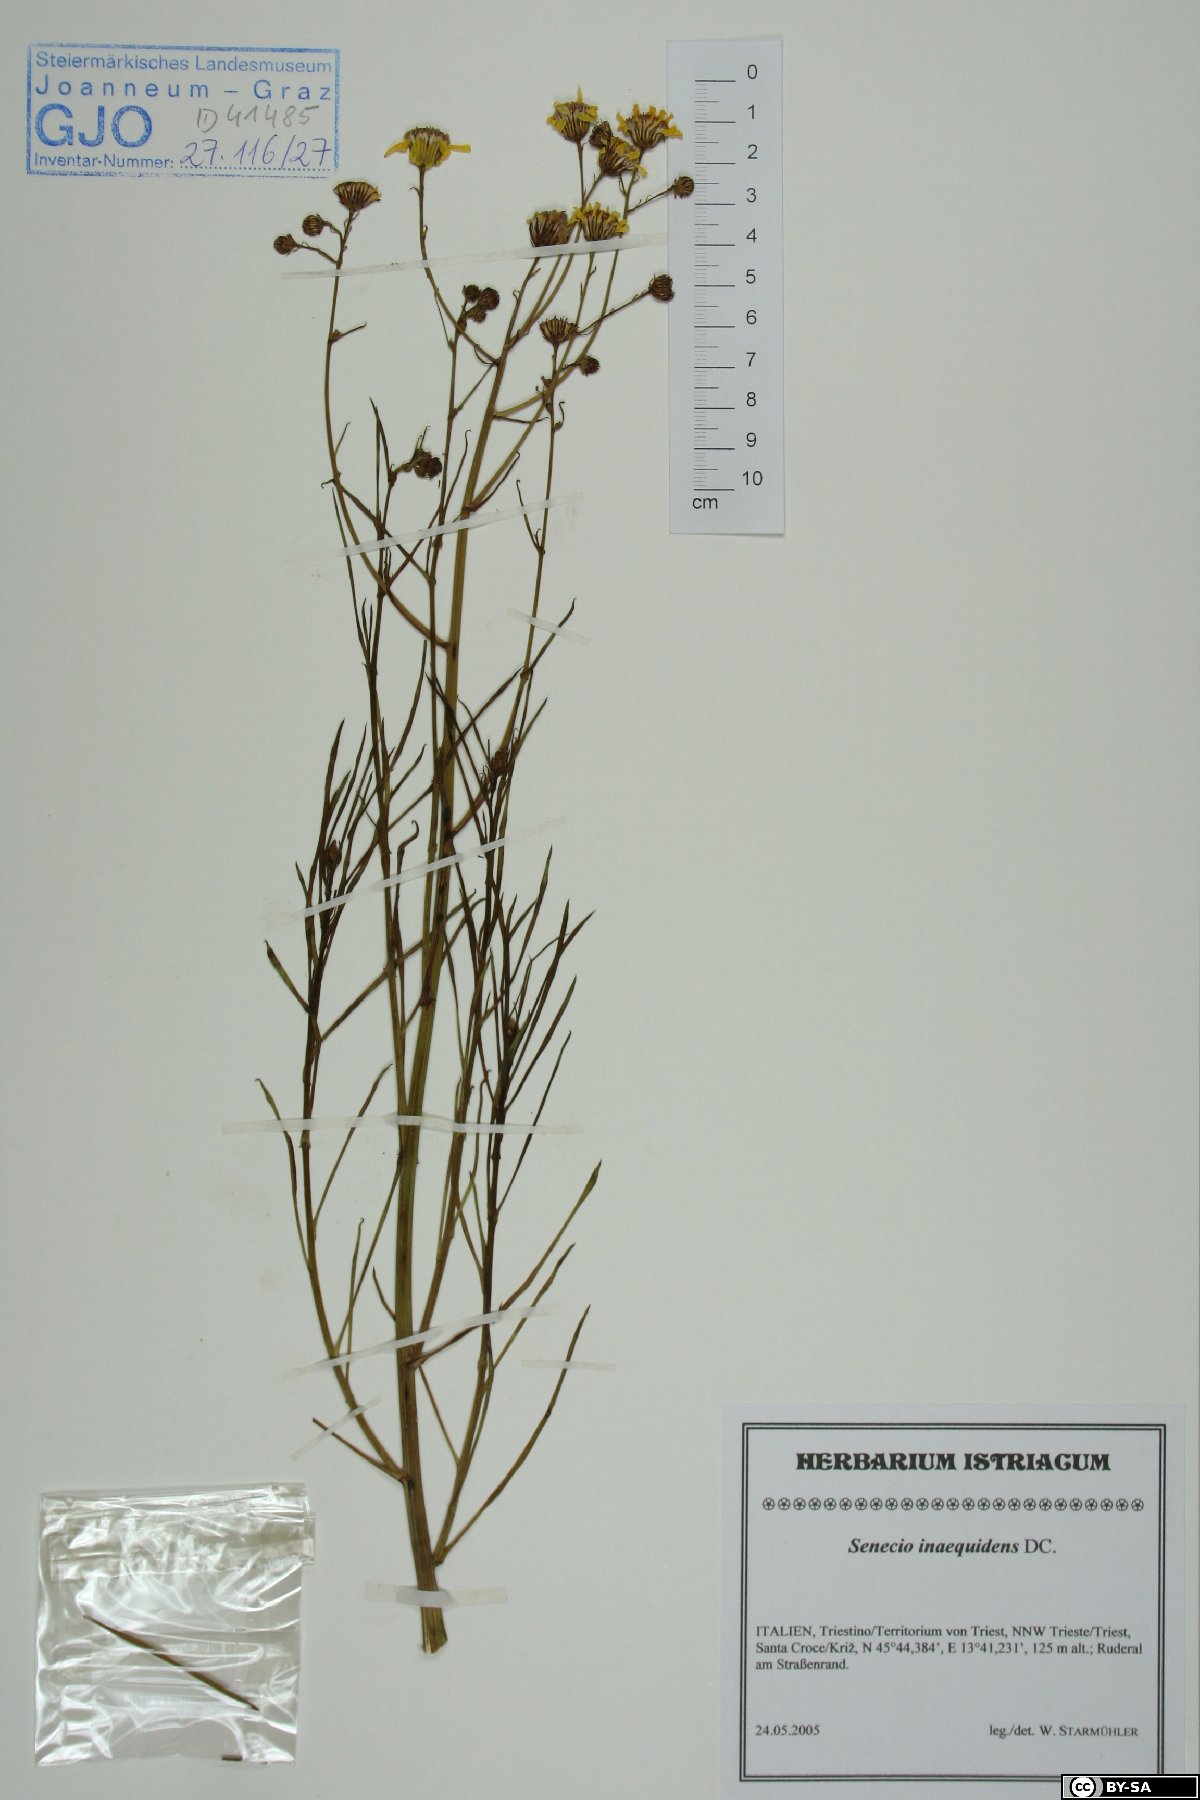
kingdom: Plantae
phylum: Tracheophyta
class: Magnoliopsida
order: Asterales
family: Asteraceae
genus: Senecio
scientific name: Senecio inaequidens
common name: Narrow-leaved ragwort
